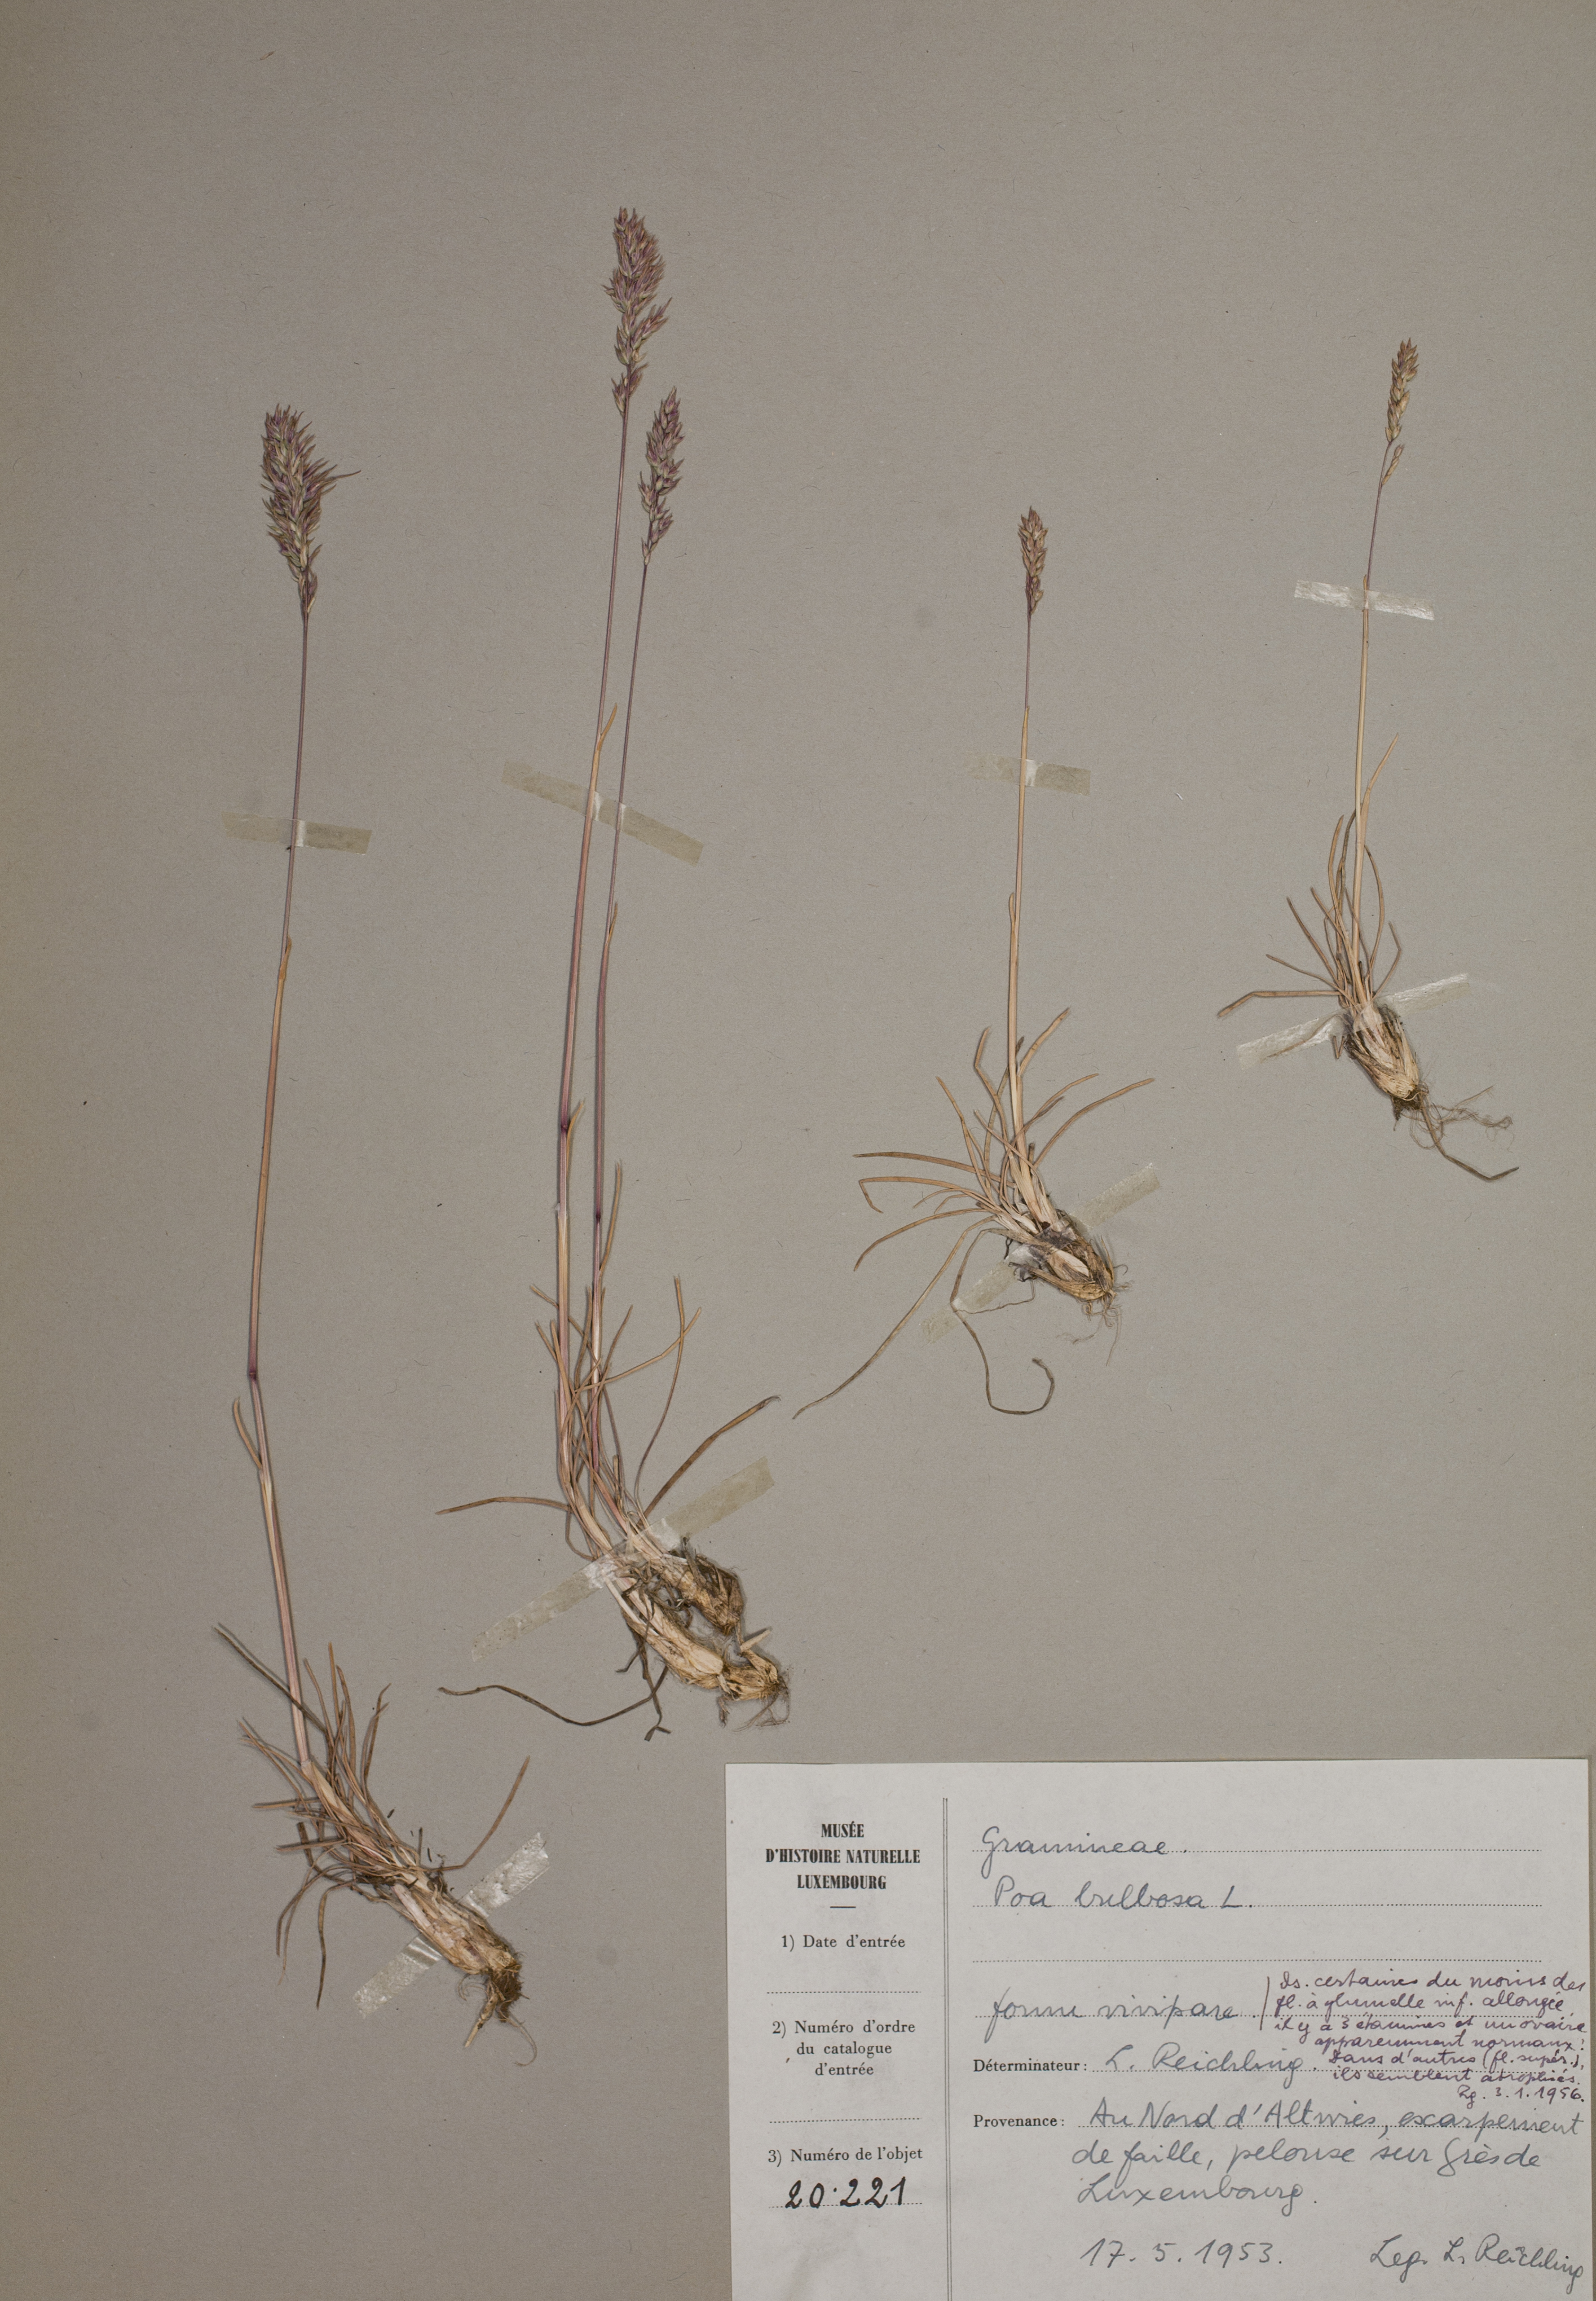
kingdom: Plantae
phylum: Tracheophyta
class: Liliopsida
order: Poales
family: Poaceae
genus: Poa
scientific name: Poa bulbosa
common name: Bulbous bluegrass
